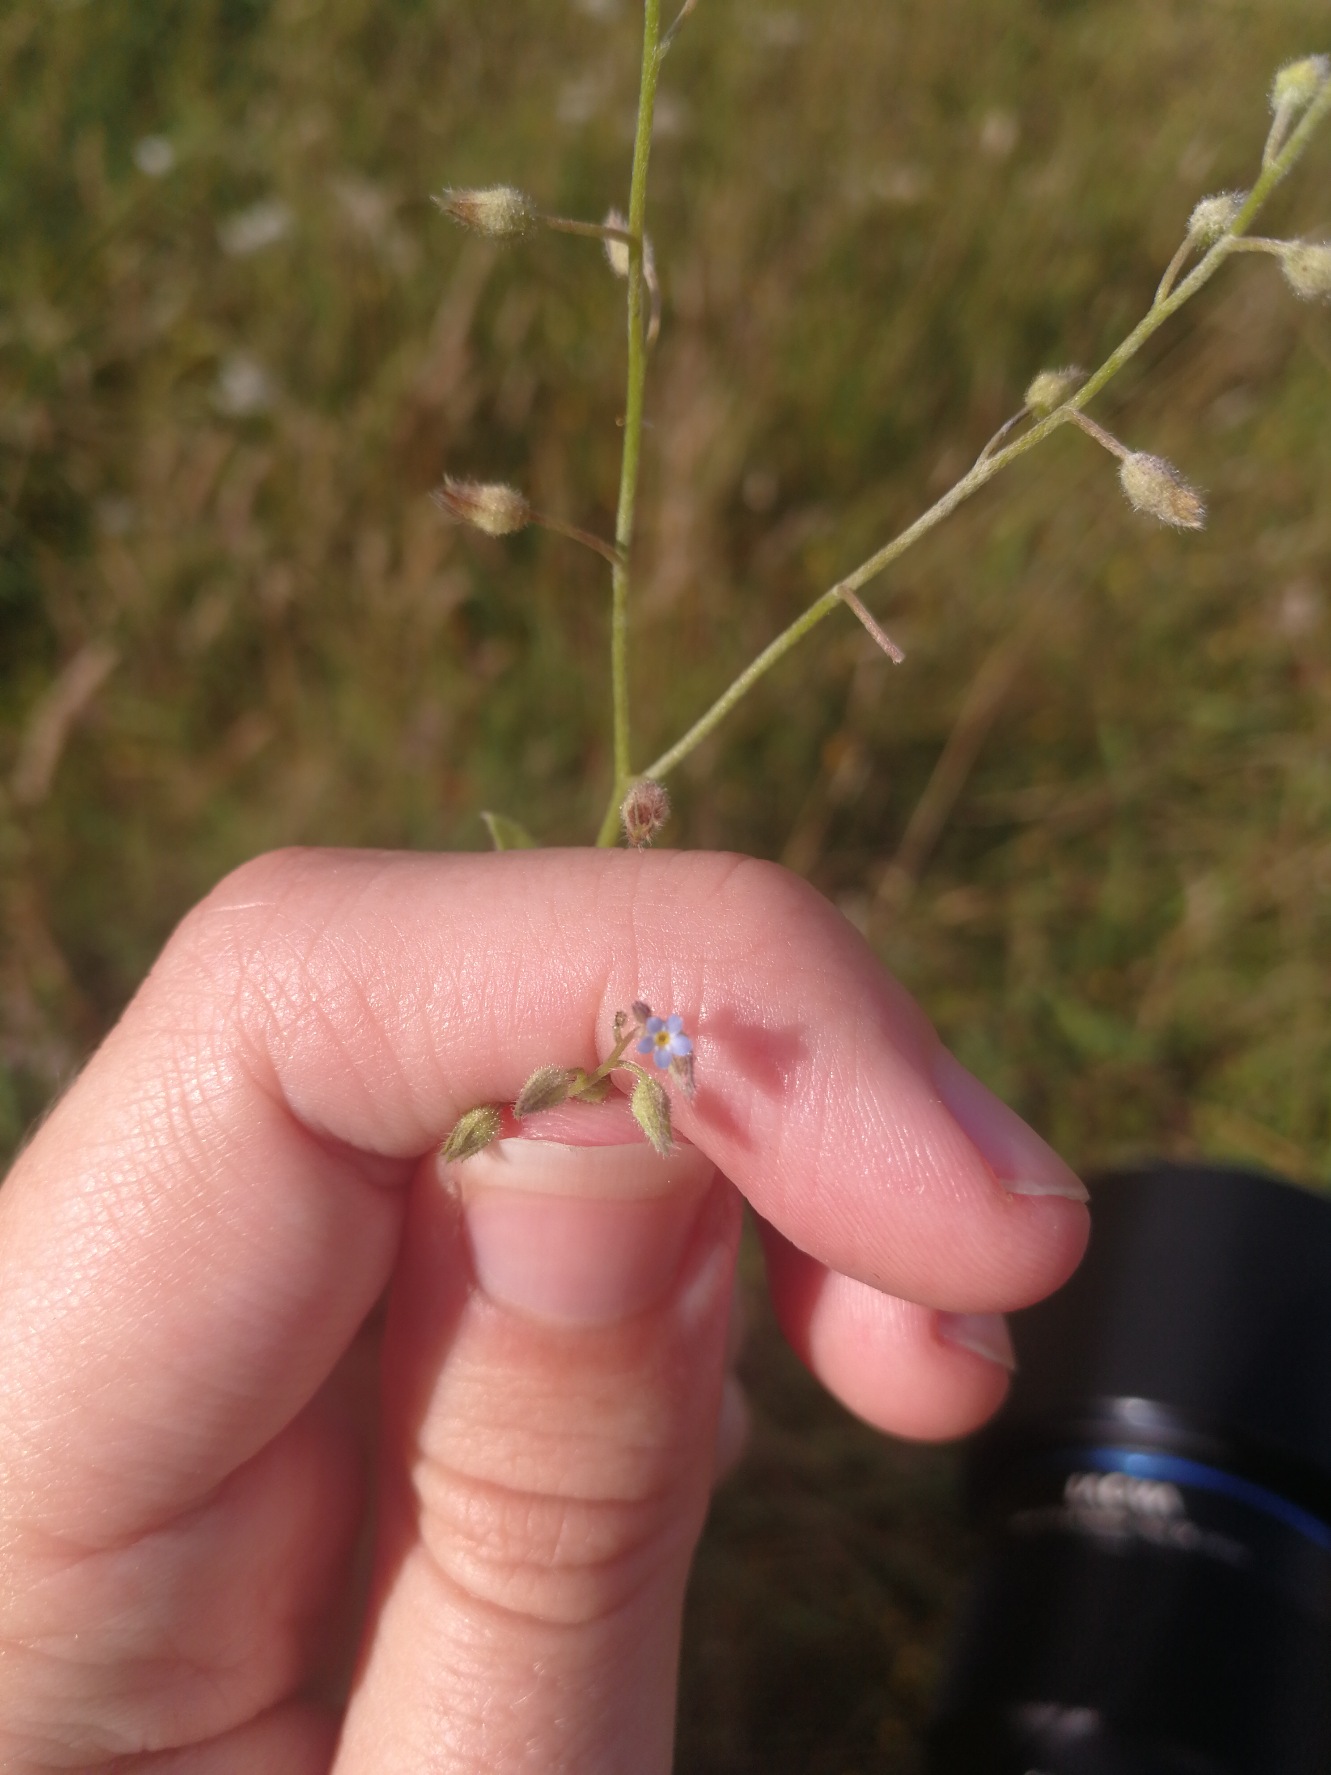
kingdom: Plantae
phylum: Tracheophyta
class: Magnoliopsida
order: Boraginales
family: Boraginaceae
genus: Myosotis
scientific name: Myosotis arvensis
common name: Mark-forglemmigej
